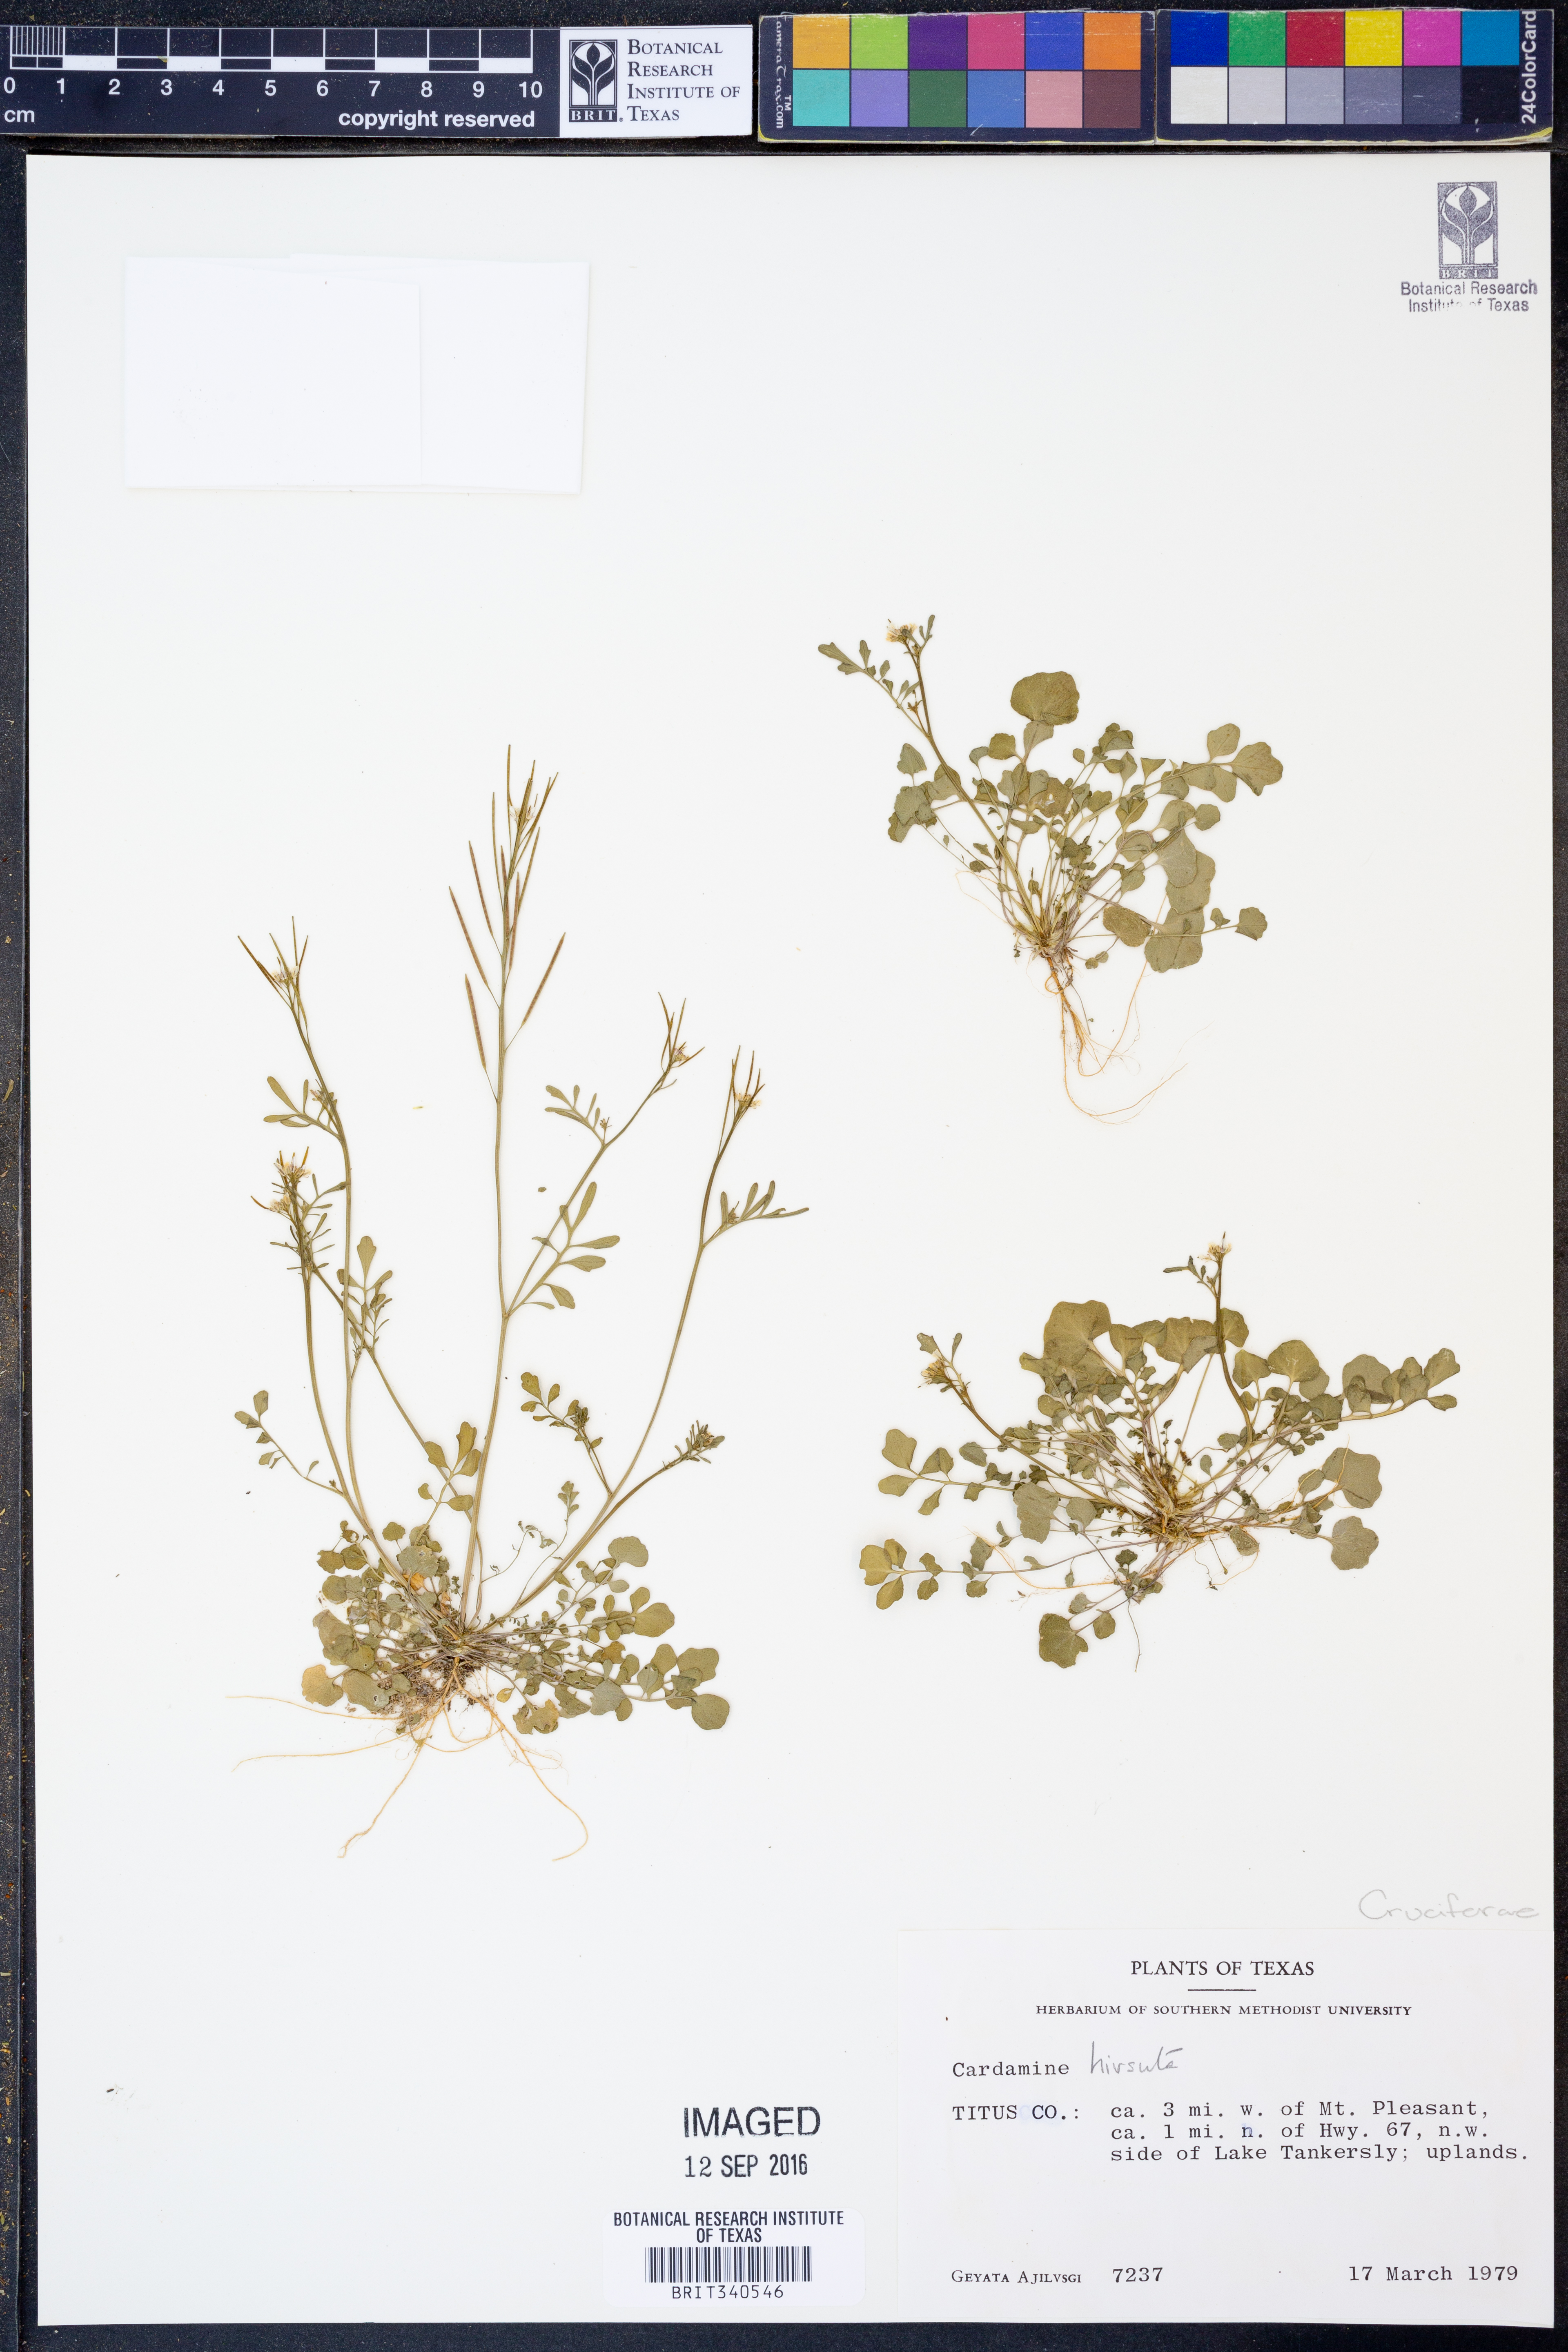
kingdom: Plantae
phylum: Tracheophyta
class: Magnoliopsida
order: Brassicales
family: Brassicaceae
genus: Cardamine
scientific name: Cardamine hirsuta
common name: Hairy bittercress
